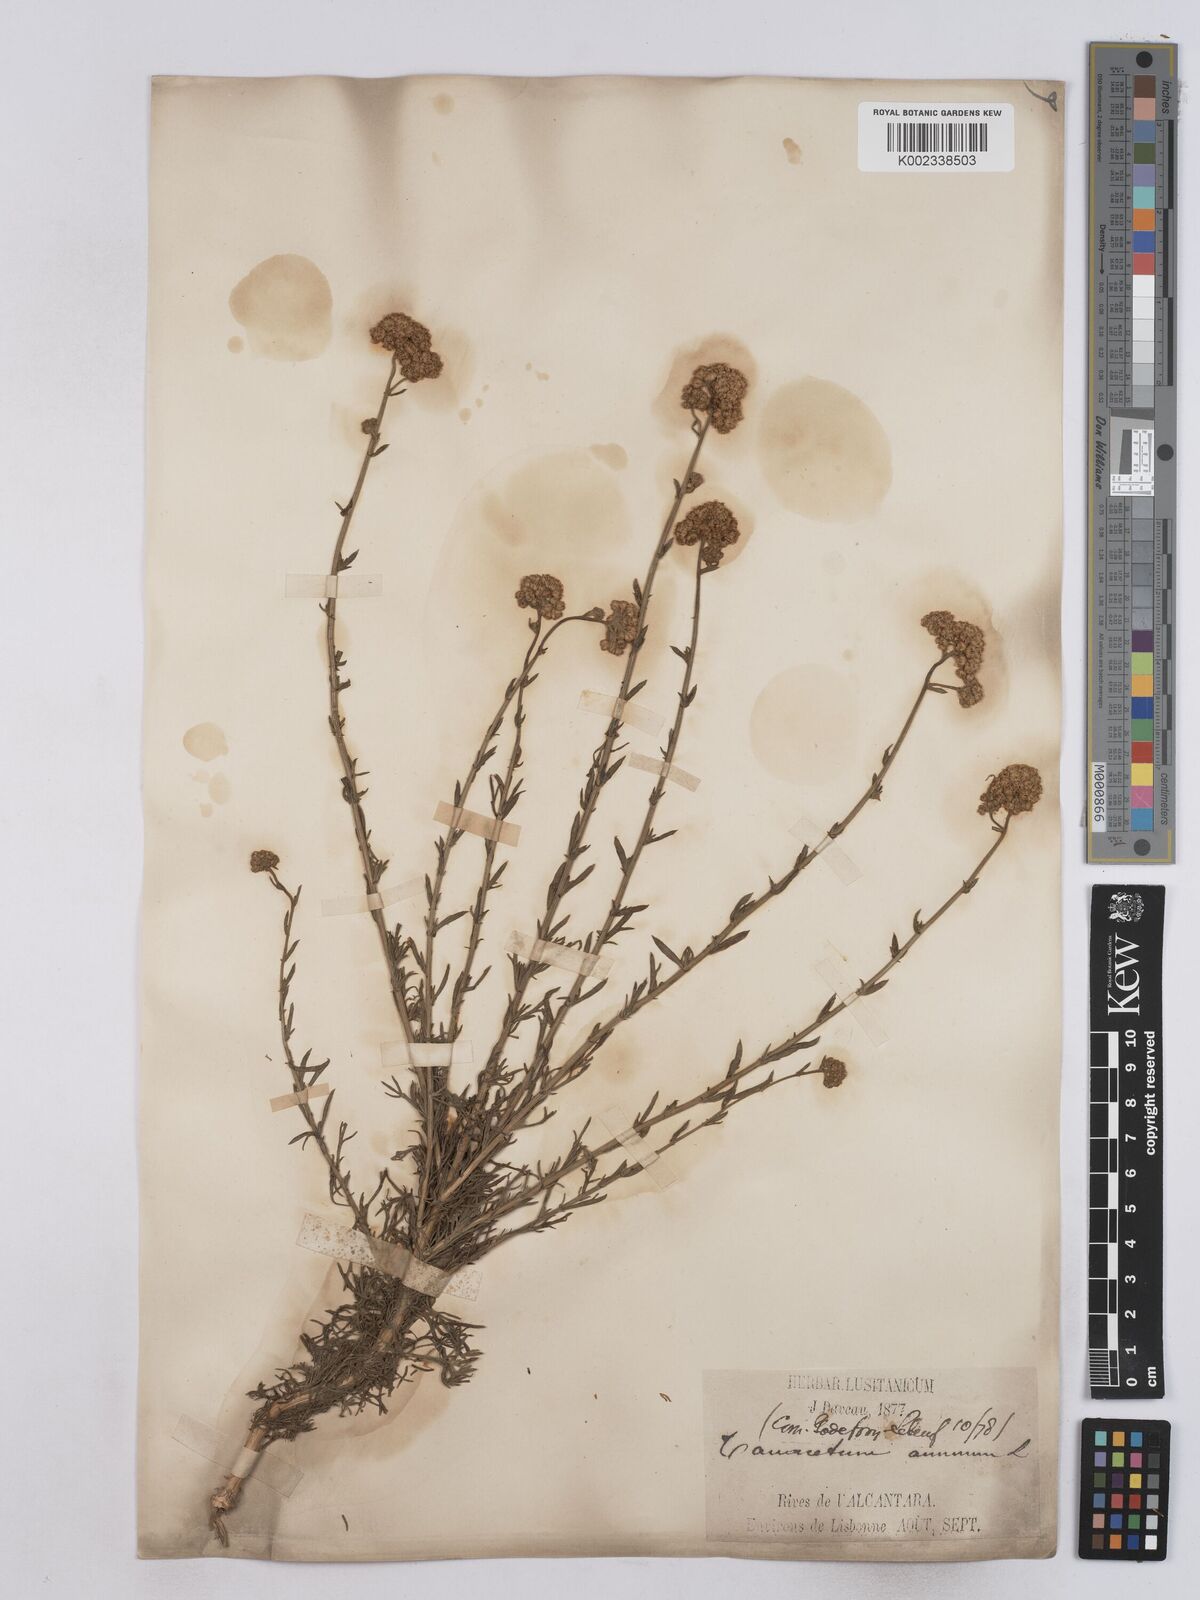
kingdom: Plantae
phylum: Tracheophyta
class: Magnoliopsida
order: Asterales
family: Asteraceae
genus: Vogtia
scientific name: Vogtia annua
